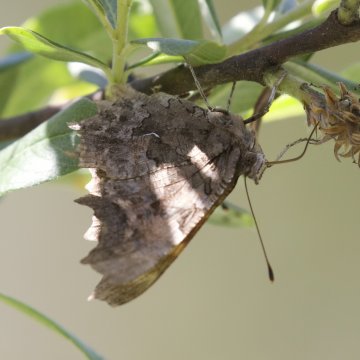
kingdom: Animalia
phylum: Arthropoda
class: Insecta
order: Lepidoptera
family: Nymphalidae
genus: Polygonia
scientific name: Polygonia faunus
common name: Green Comma
